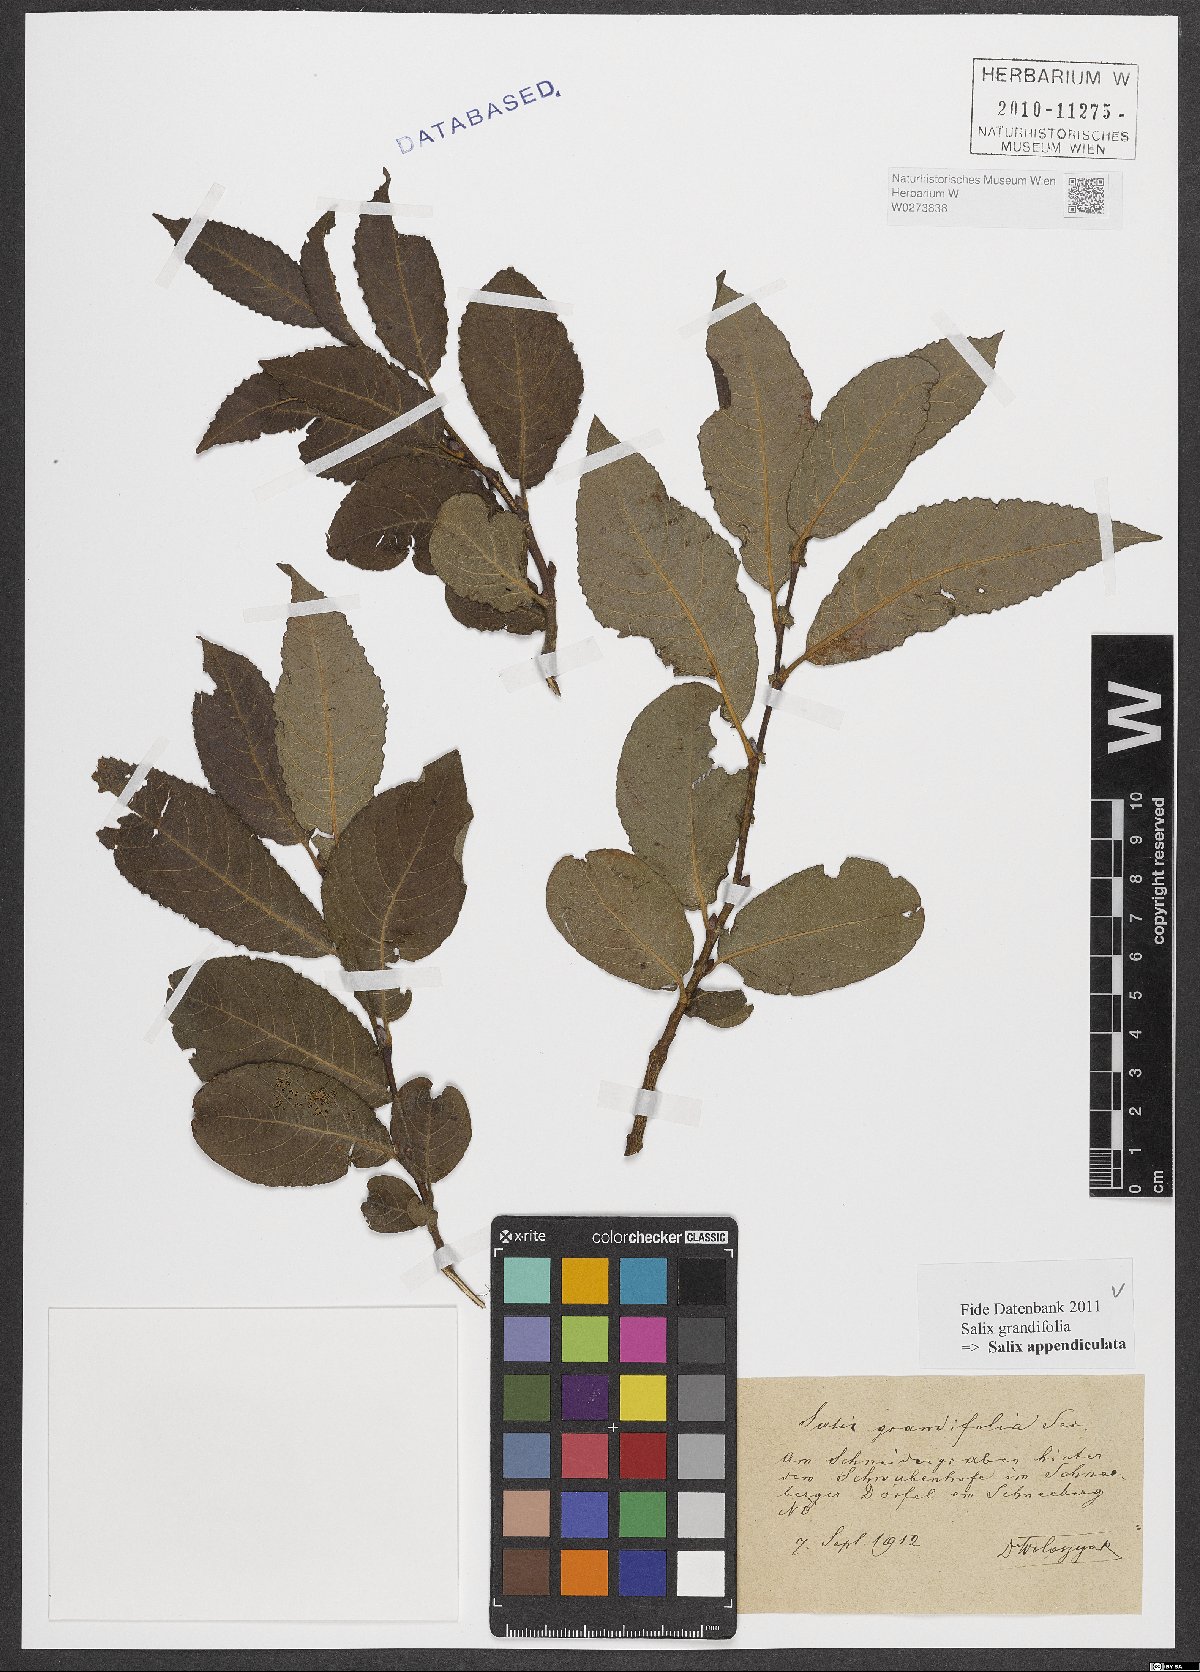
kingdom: Plantae
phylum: Tracheophyta
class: Magnoliopsida
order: Malpighiales
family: Salicaceae
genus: Salix
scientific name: Salix appendiculata
